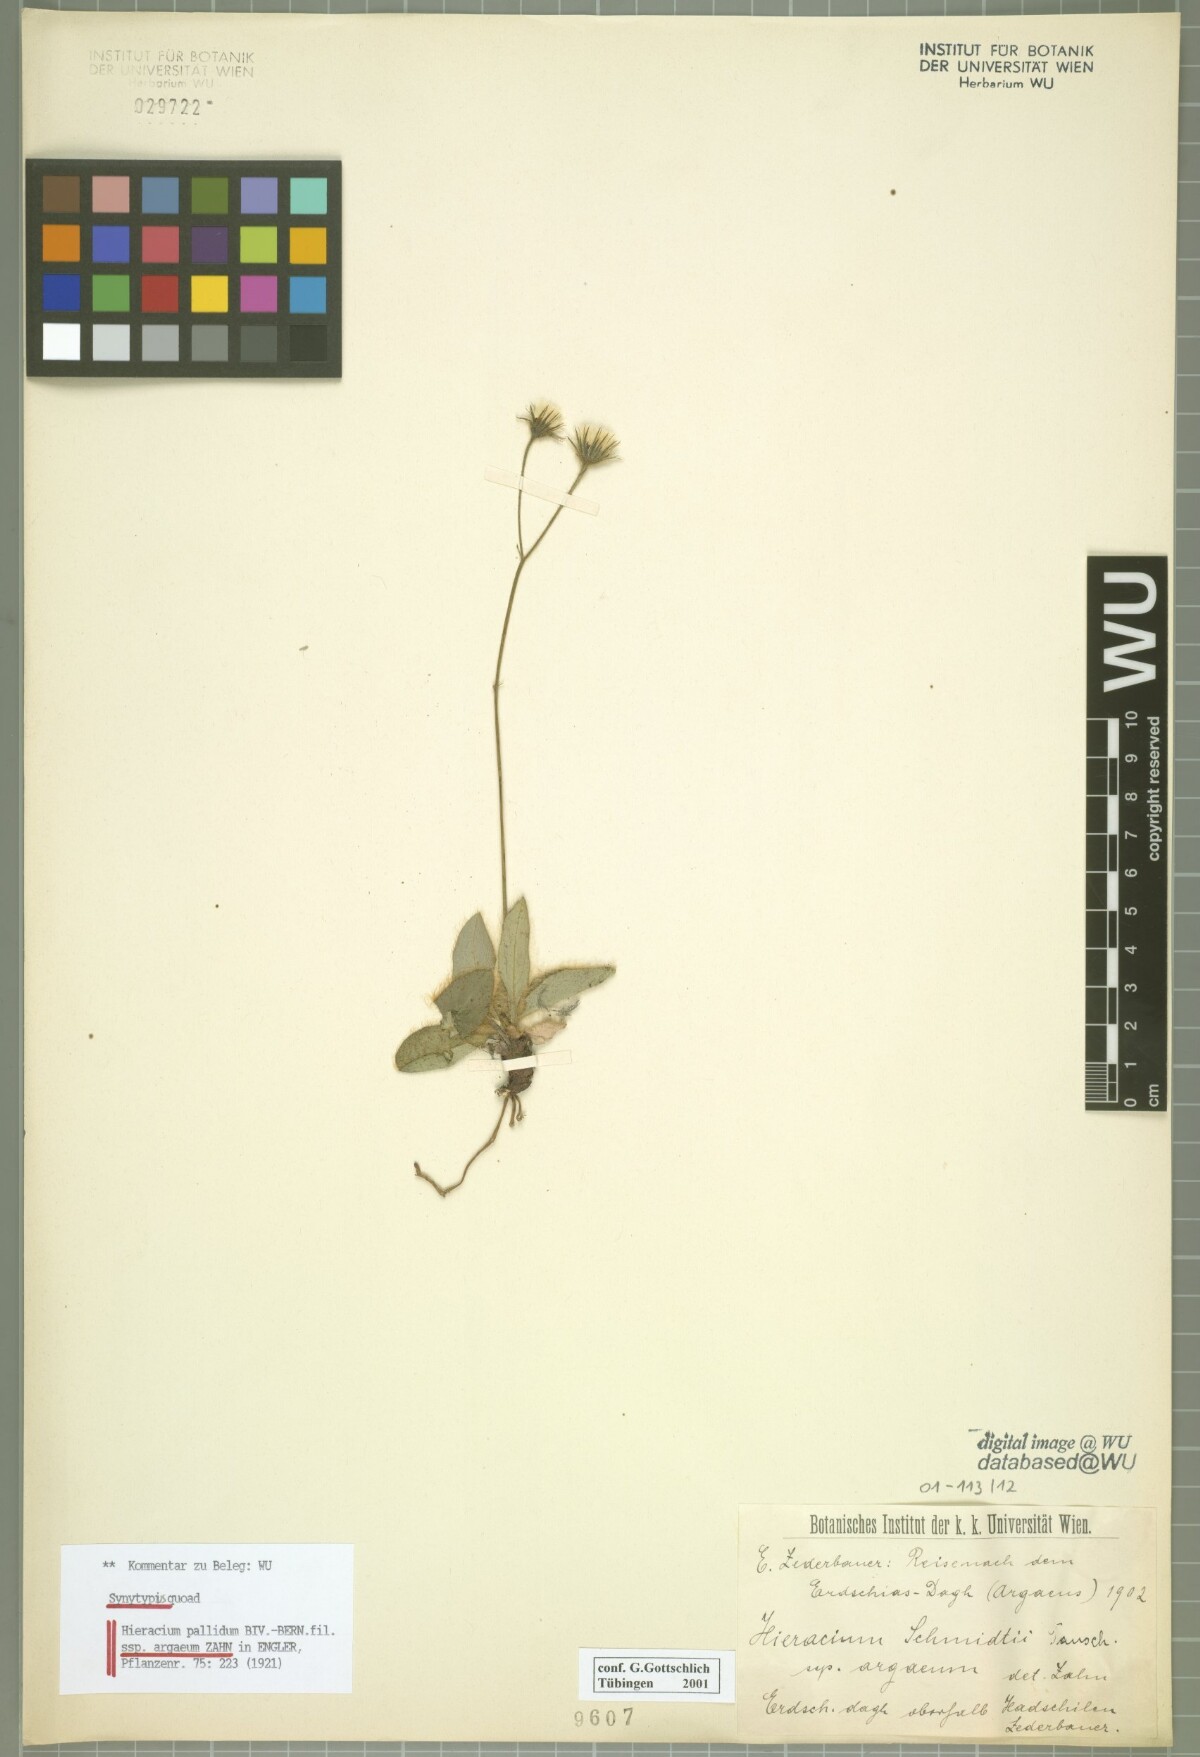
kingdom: Plantae
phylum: Tracheophyta
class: Magnoliopsida
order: Asterales
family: Asteraceae
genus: Hieracium
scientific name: Hieracium schmidtii
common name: Schmidt's hawkweed
